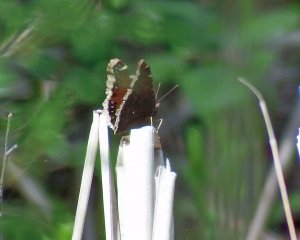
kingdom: Animalia
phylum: Arthropoda
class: Insecta
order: Lepidoptera
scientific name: Lepidoptera
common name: Butterflies
